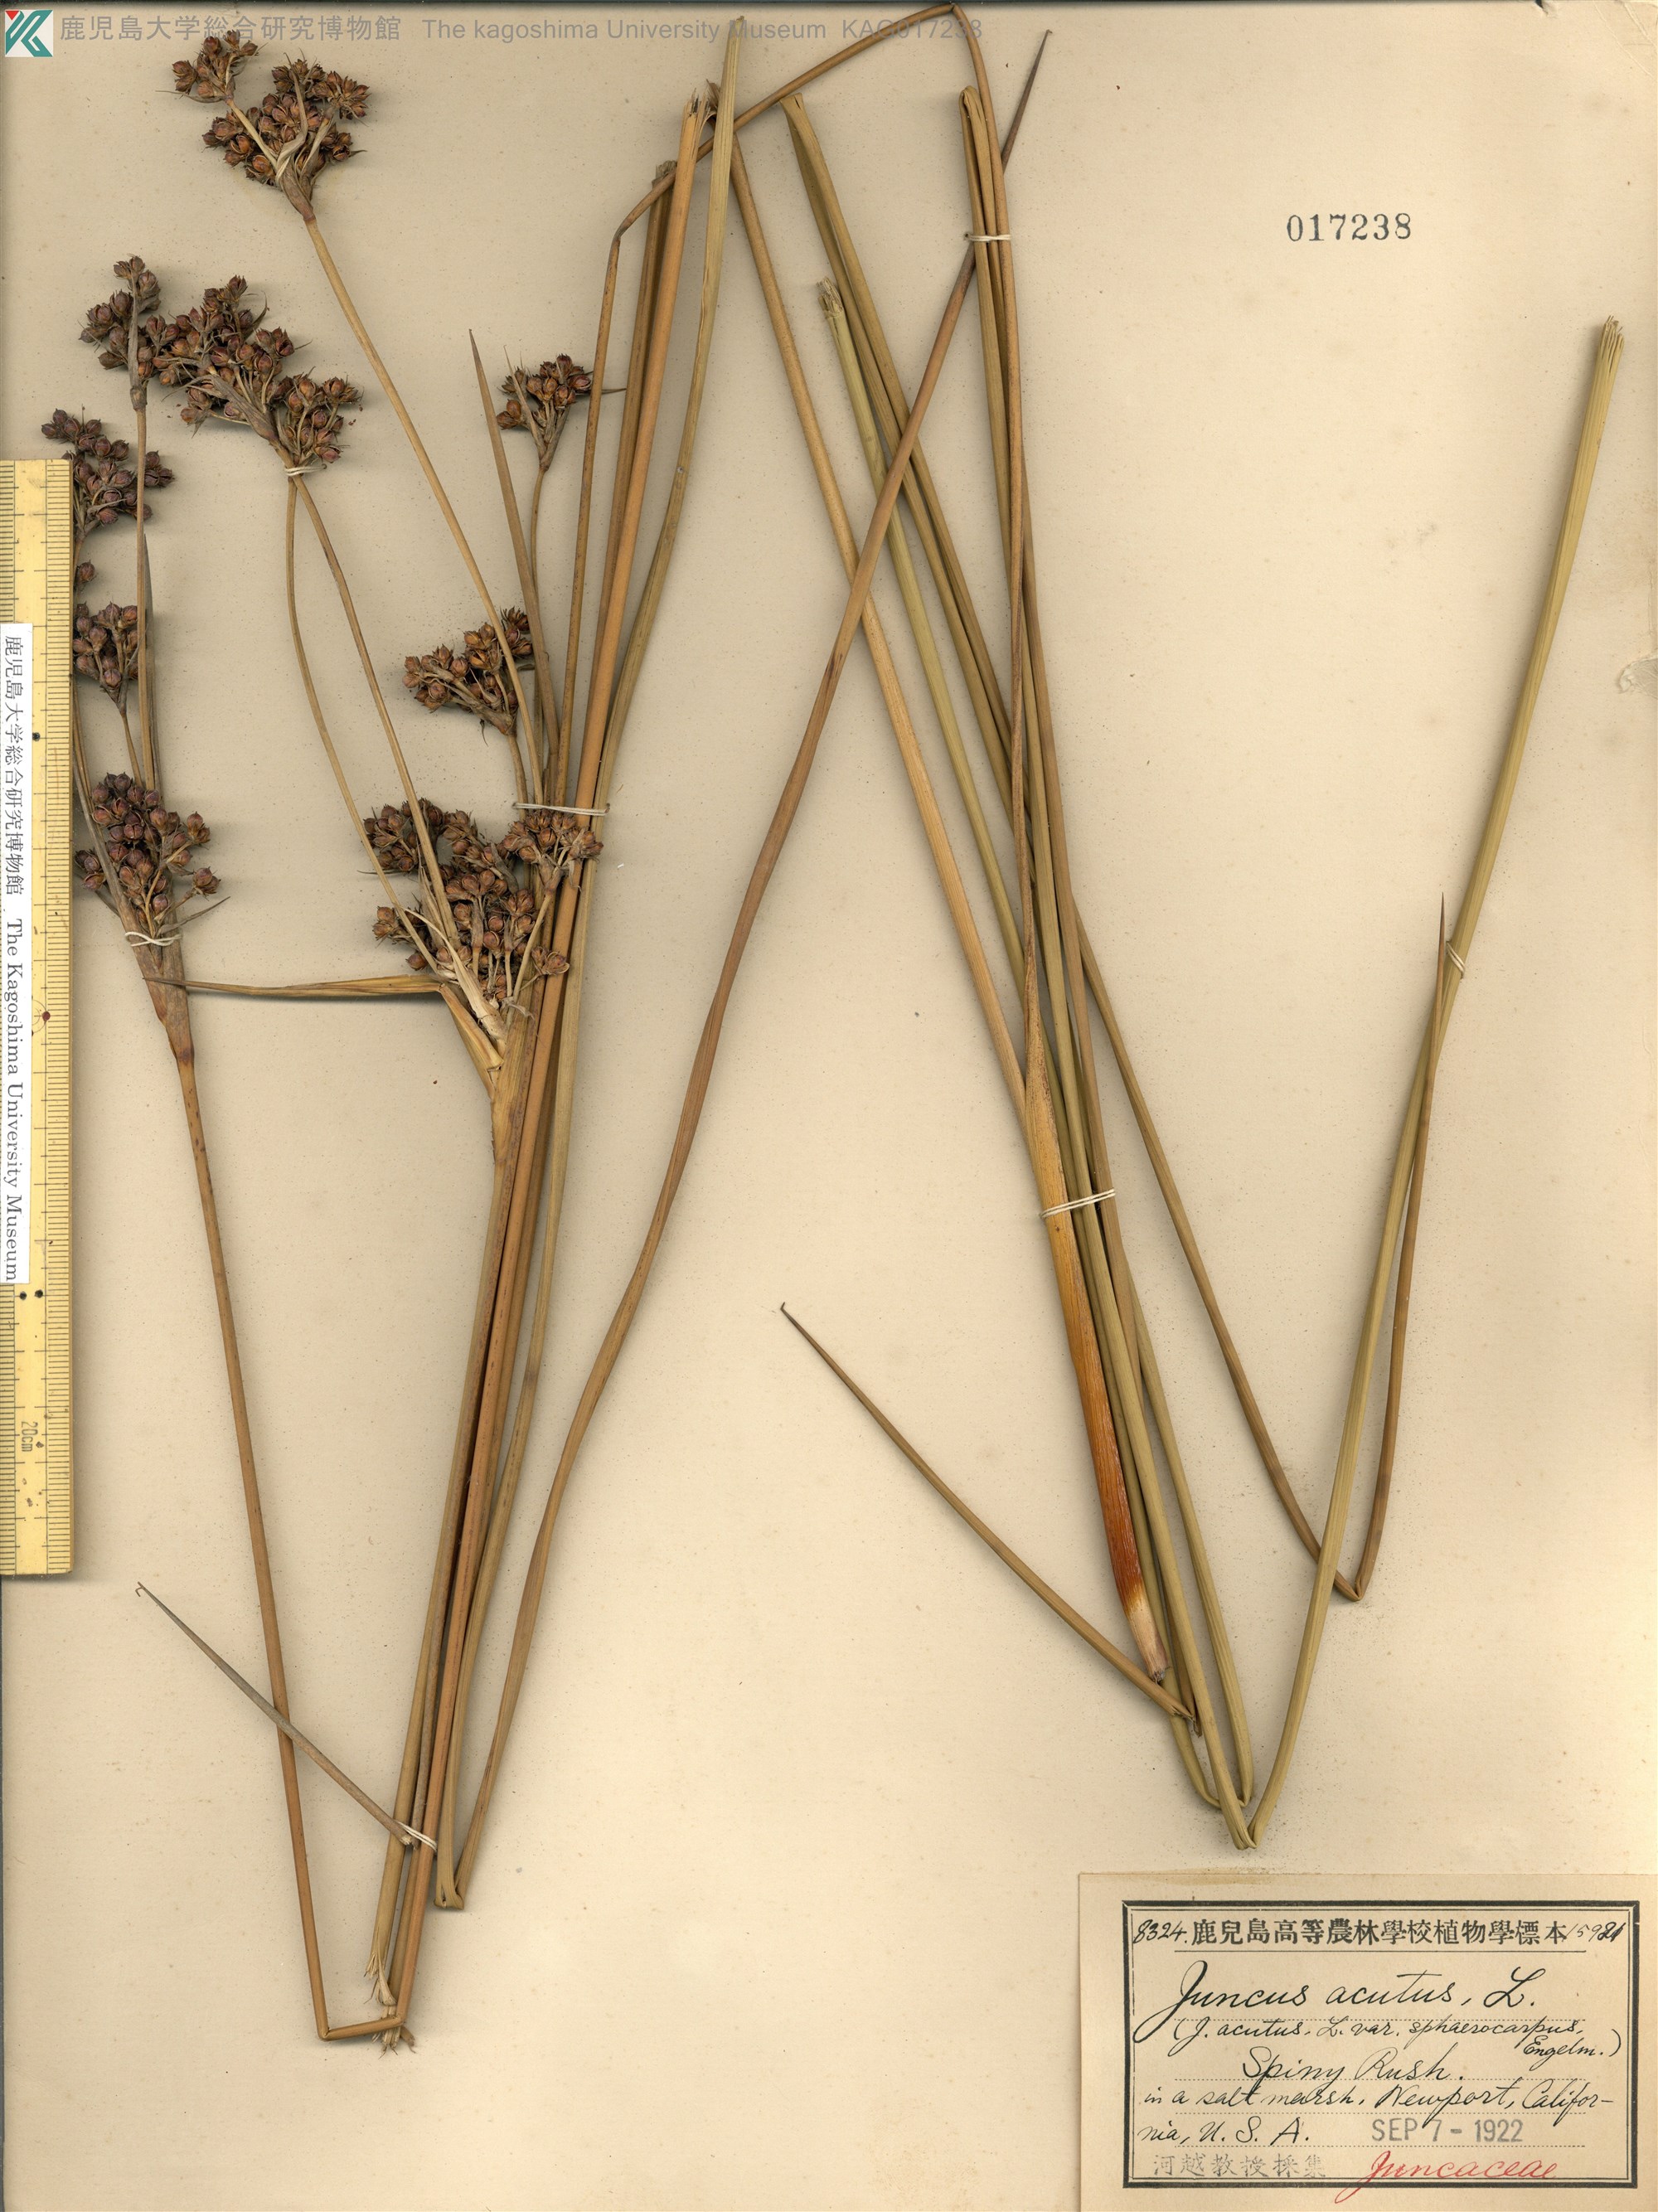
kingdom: Plantae
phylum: Tracheophyta
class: Liliopsida
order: Poales
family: Juncaceae
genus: Juncus
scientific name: Juncus acutus
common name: Sharp rush
